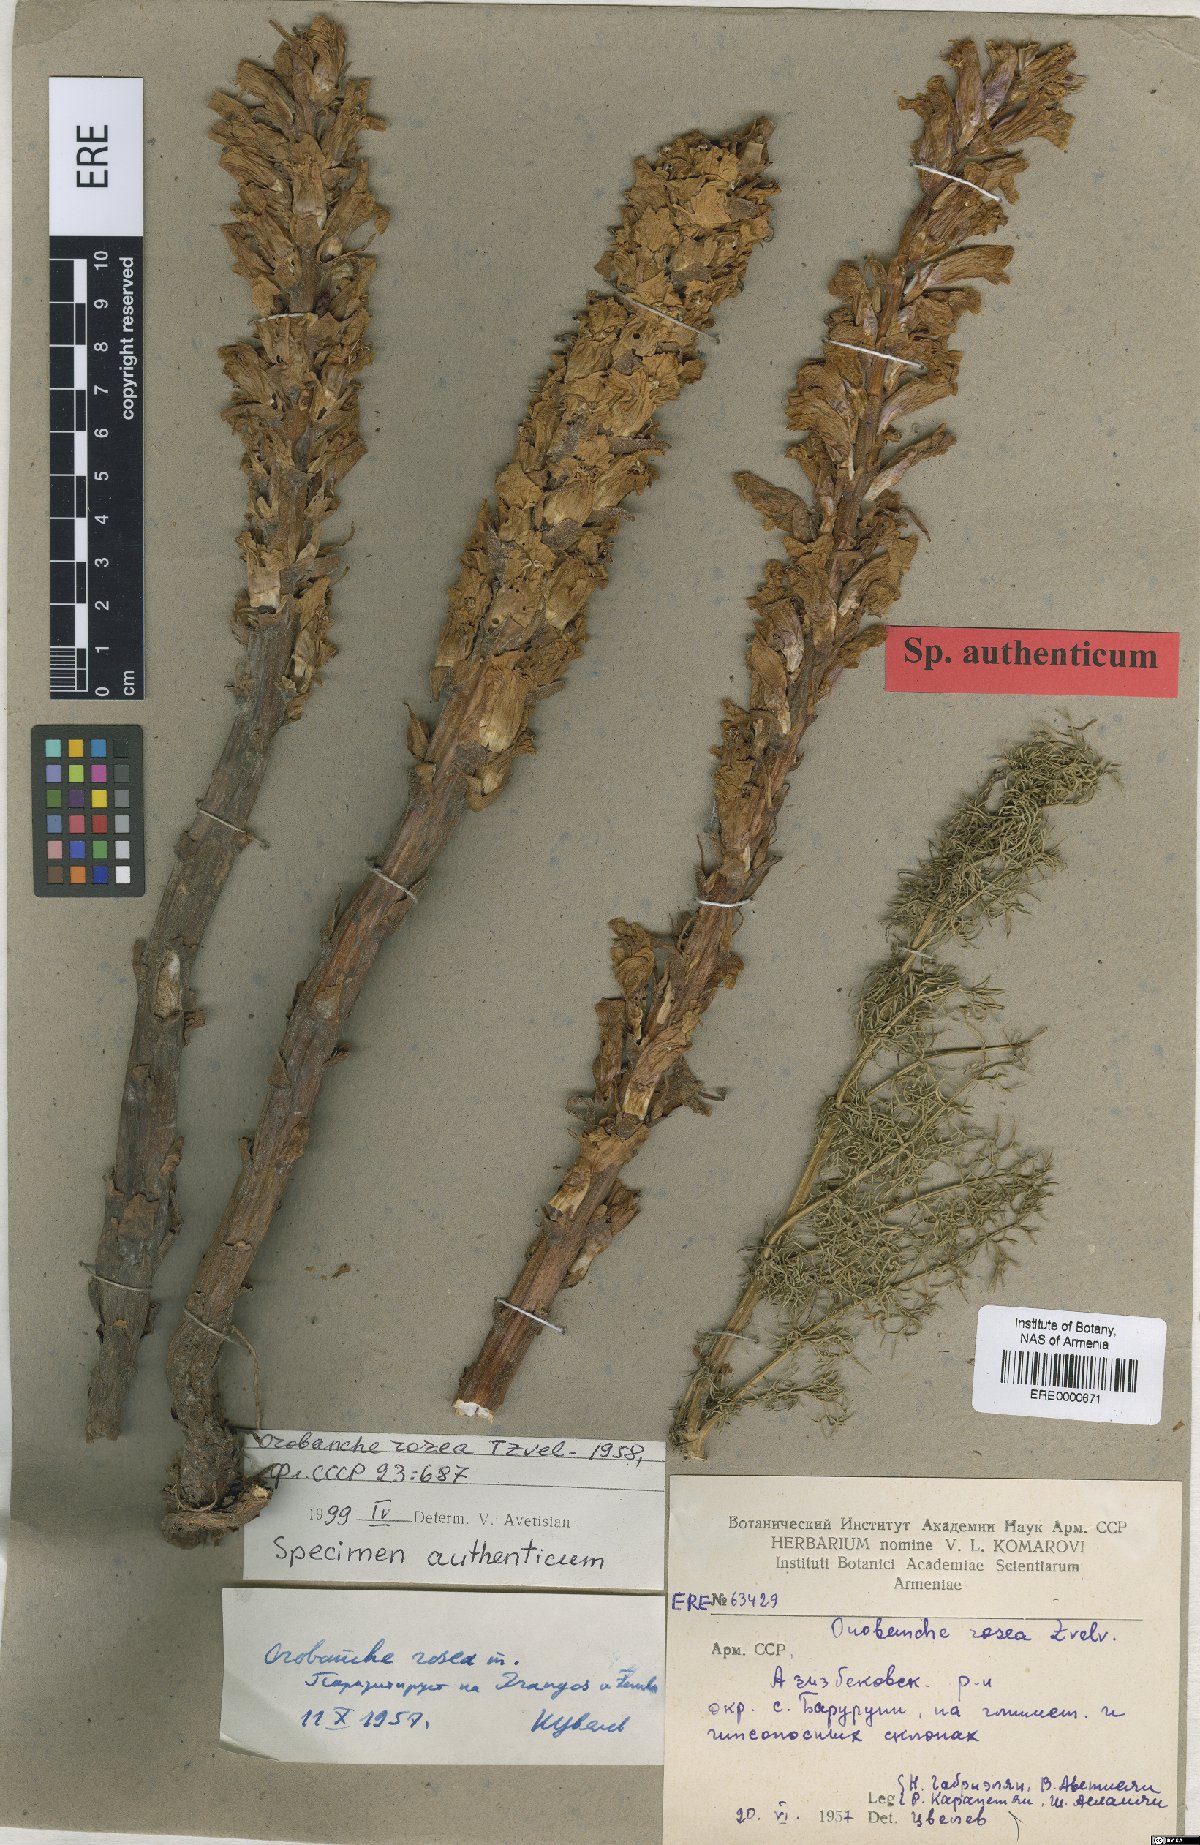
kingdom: Plantae
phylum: Tracheophyta
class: Magnoliopsida
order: Lamiales
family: Orobanchaceae
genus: Orobanche
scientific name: Orobanche elatior
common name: Knapweed broomrape
